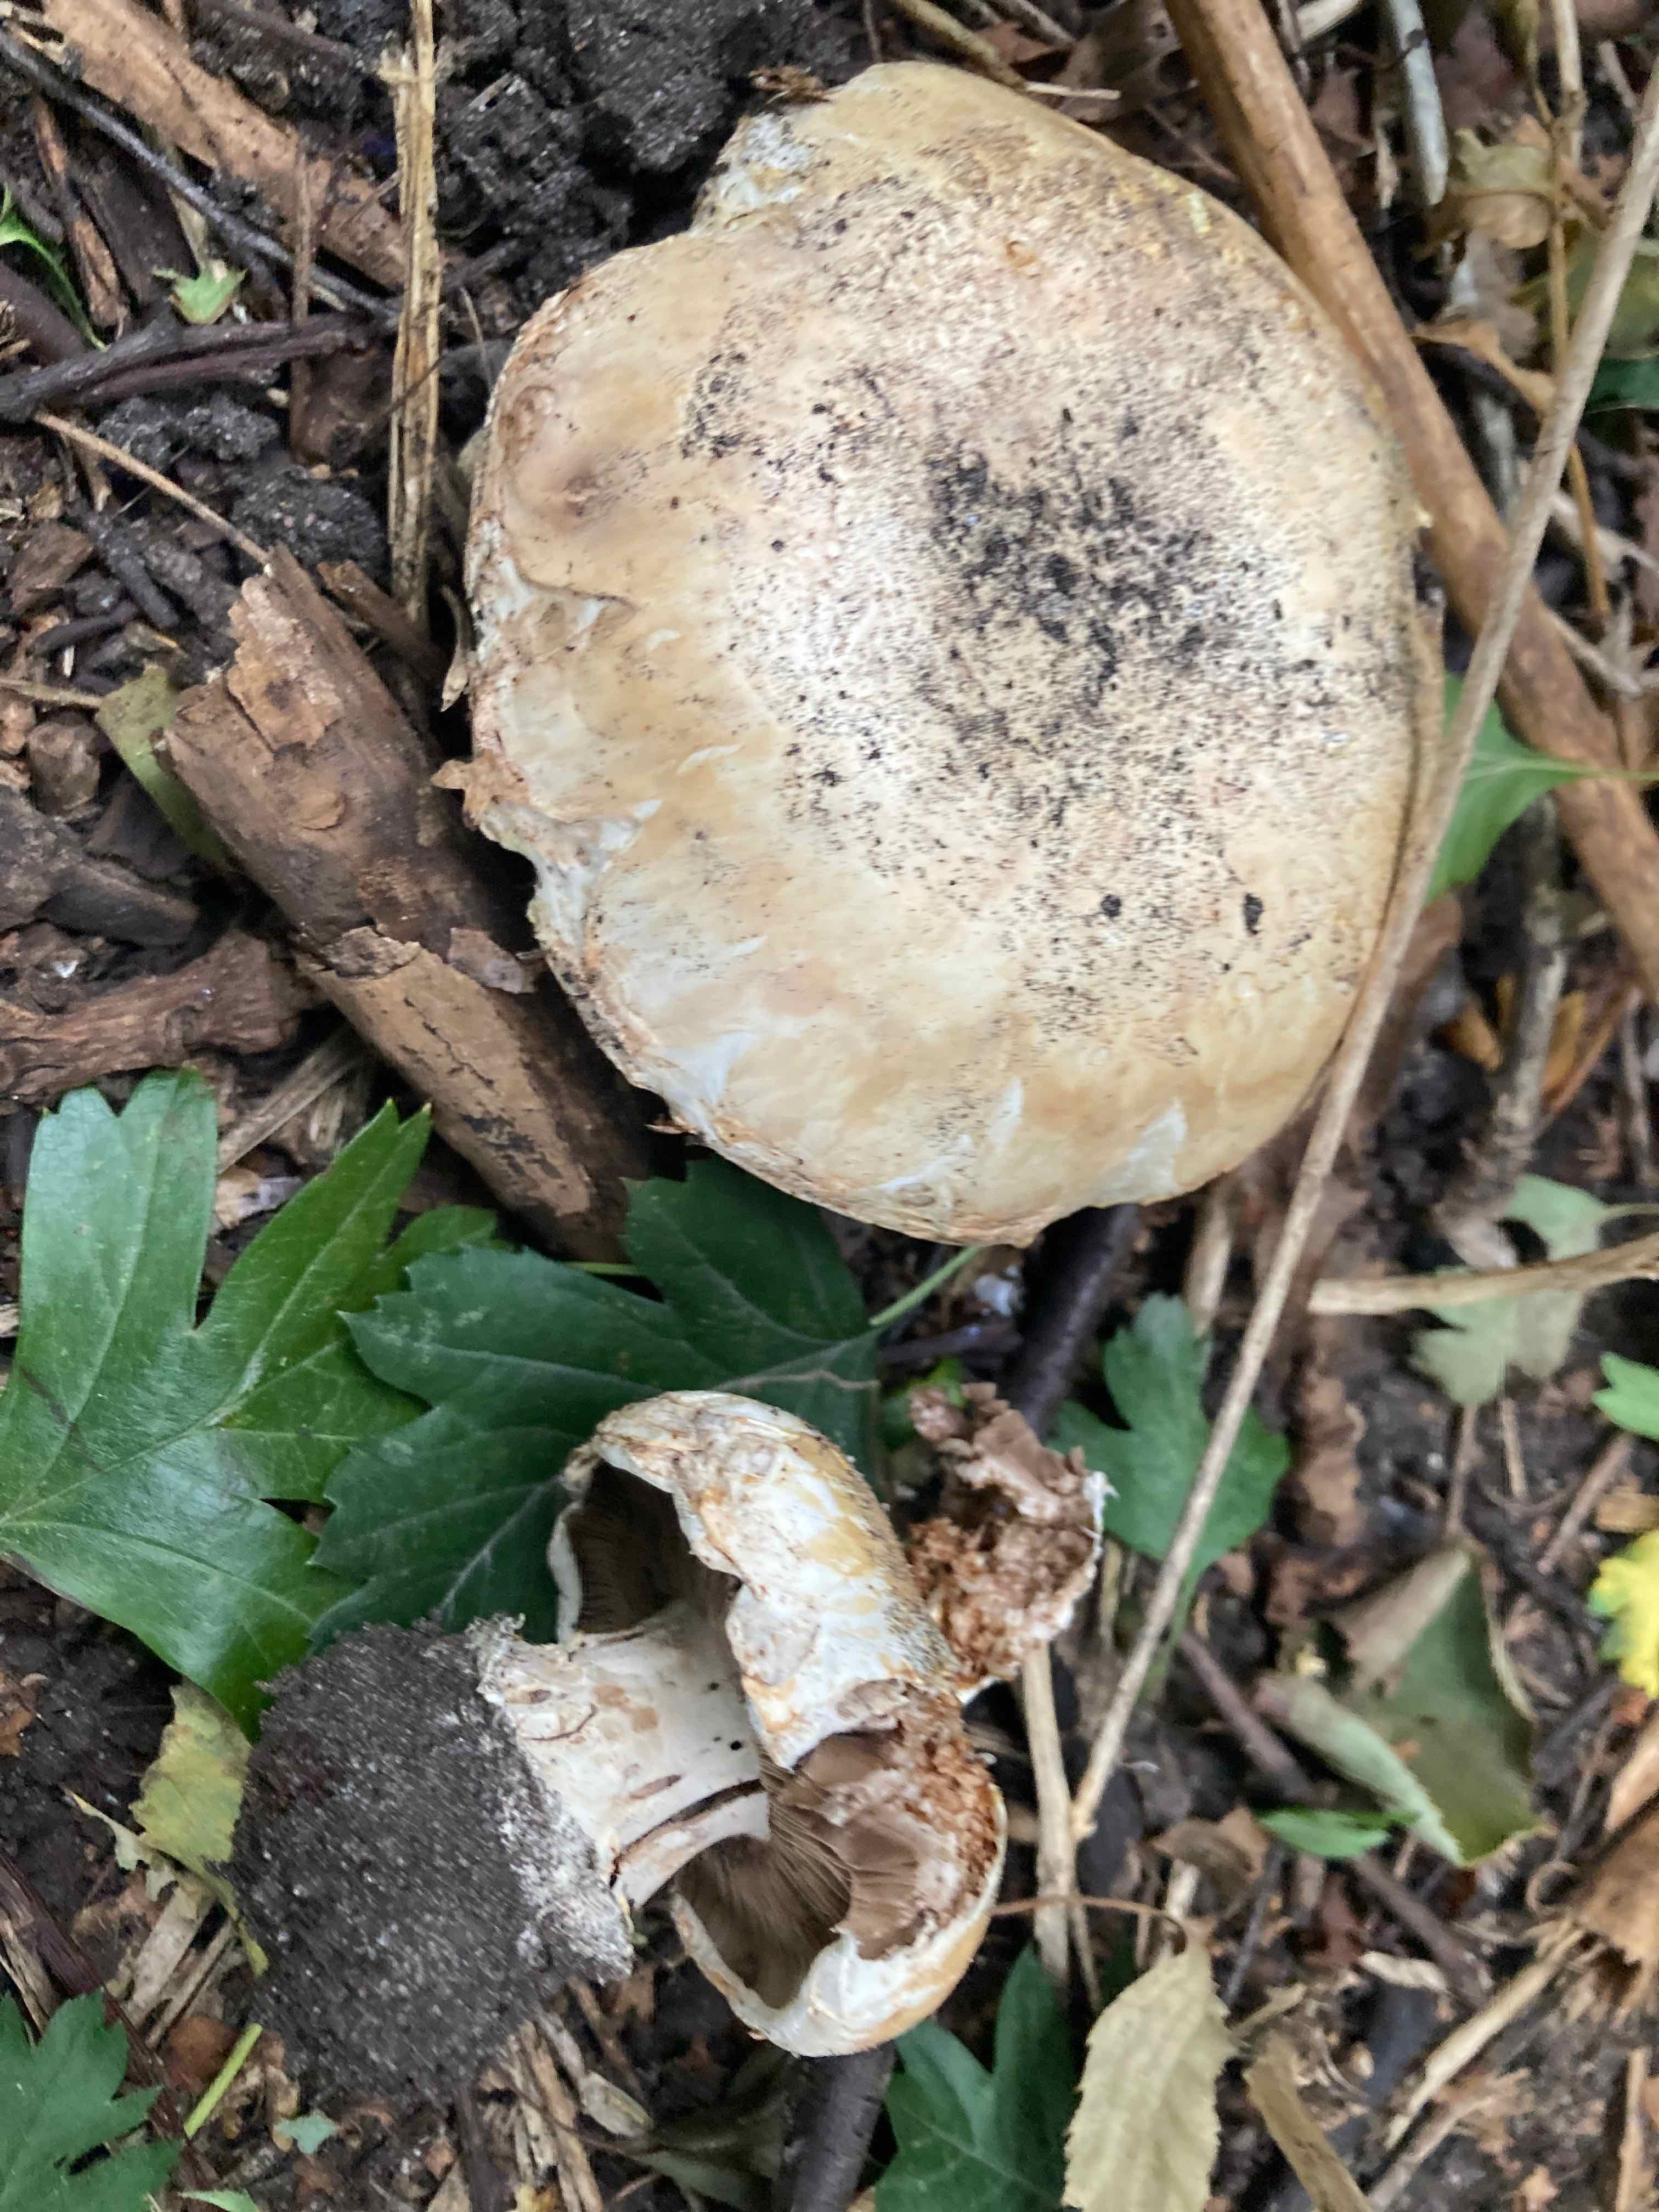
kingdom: Fungi
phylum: Basidiomycota
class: Agaricomycetes
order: Agaricales
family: Agaricaceae
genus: Agaricus
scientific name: Agaricus bitorquis
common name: vej-champignon
